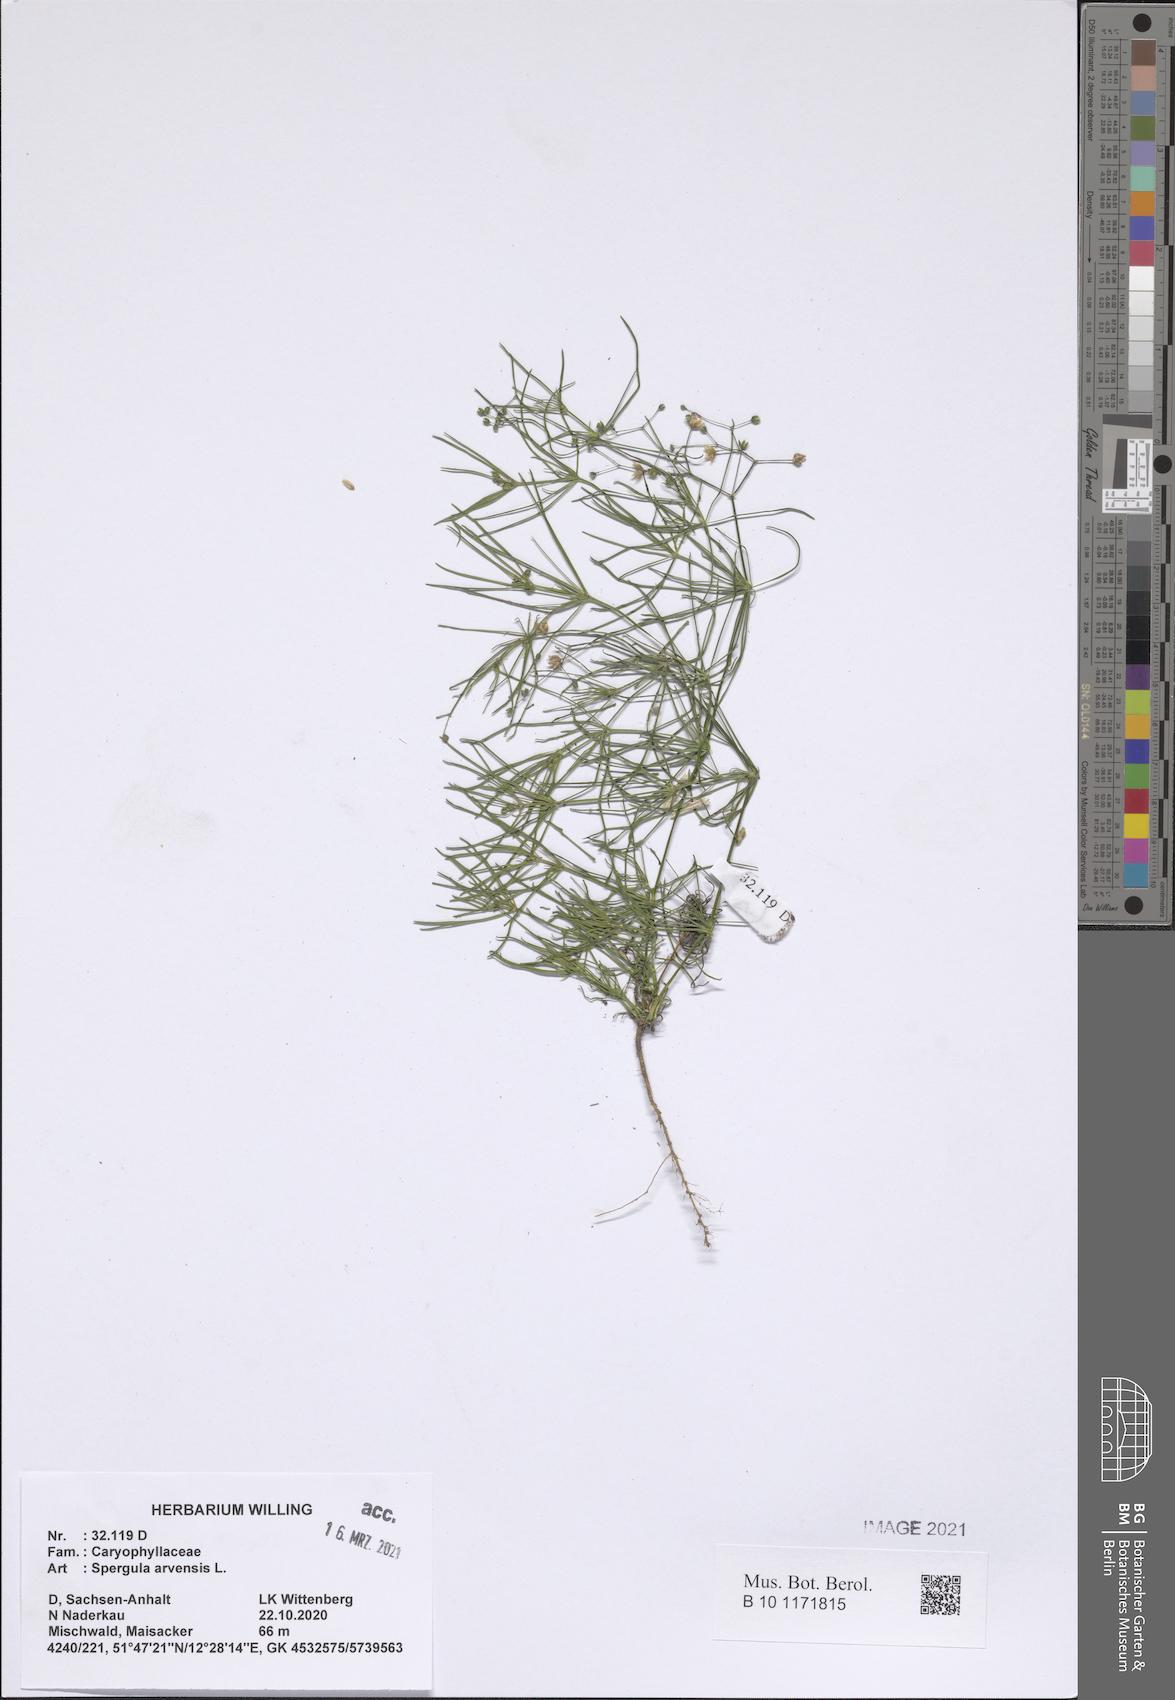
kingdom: Plantae
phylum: Tracheophyta
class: Magnoliopsida
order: Caryophyllales
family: Caryophyllaceae
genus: Spergula
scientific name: Spergula arvensis
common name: Corn spurrey
